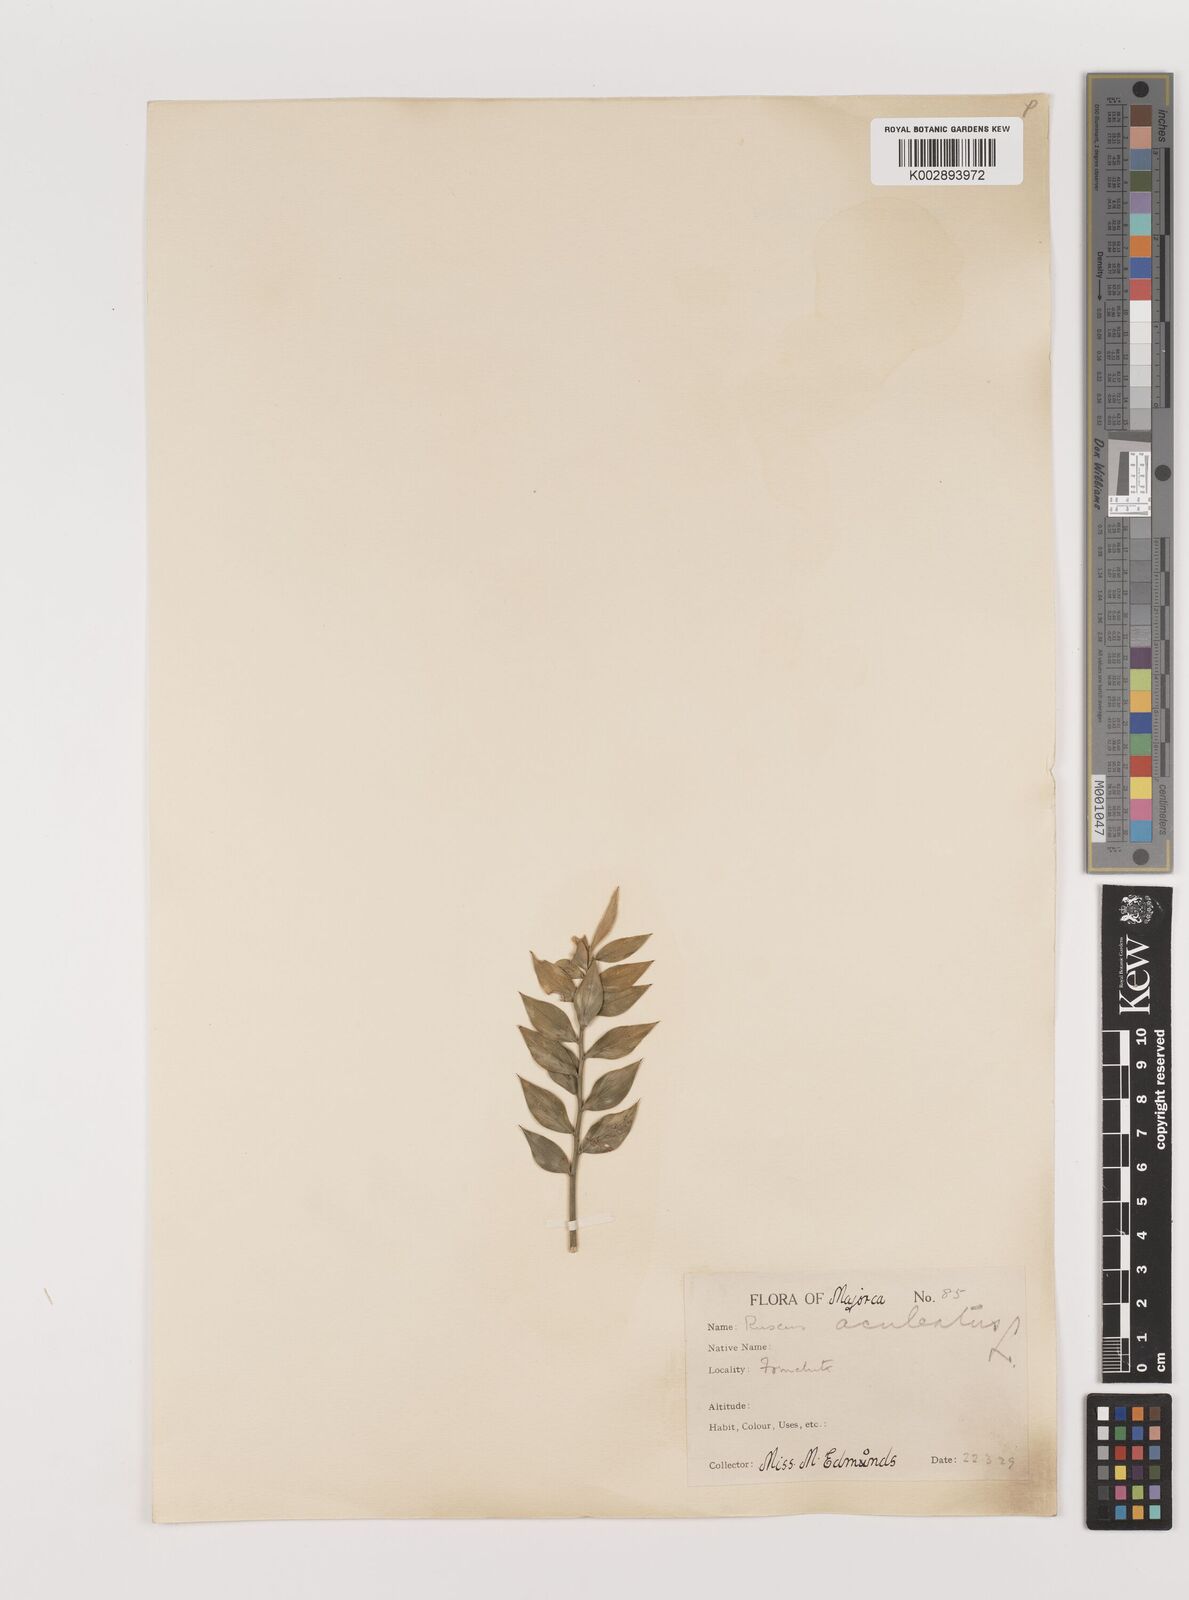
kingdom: Plantae
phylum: Tracheophyta
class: Liliopsida
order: Asparagales
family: Asparagaceae
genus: Ruscus
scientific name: Ruscus aculeatus
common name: Butcher's-broom
